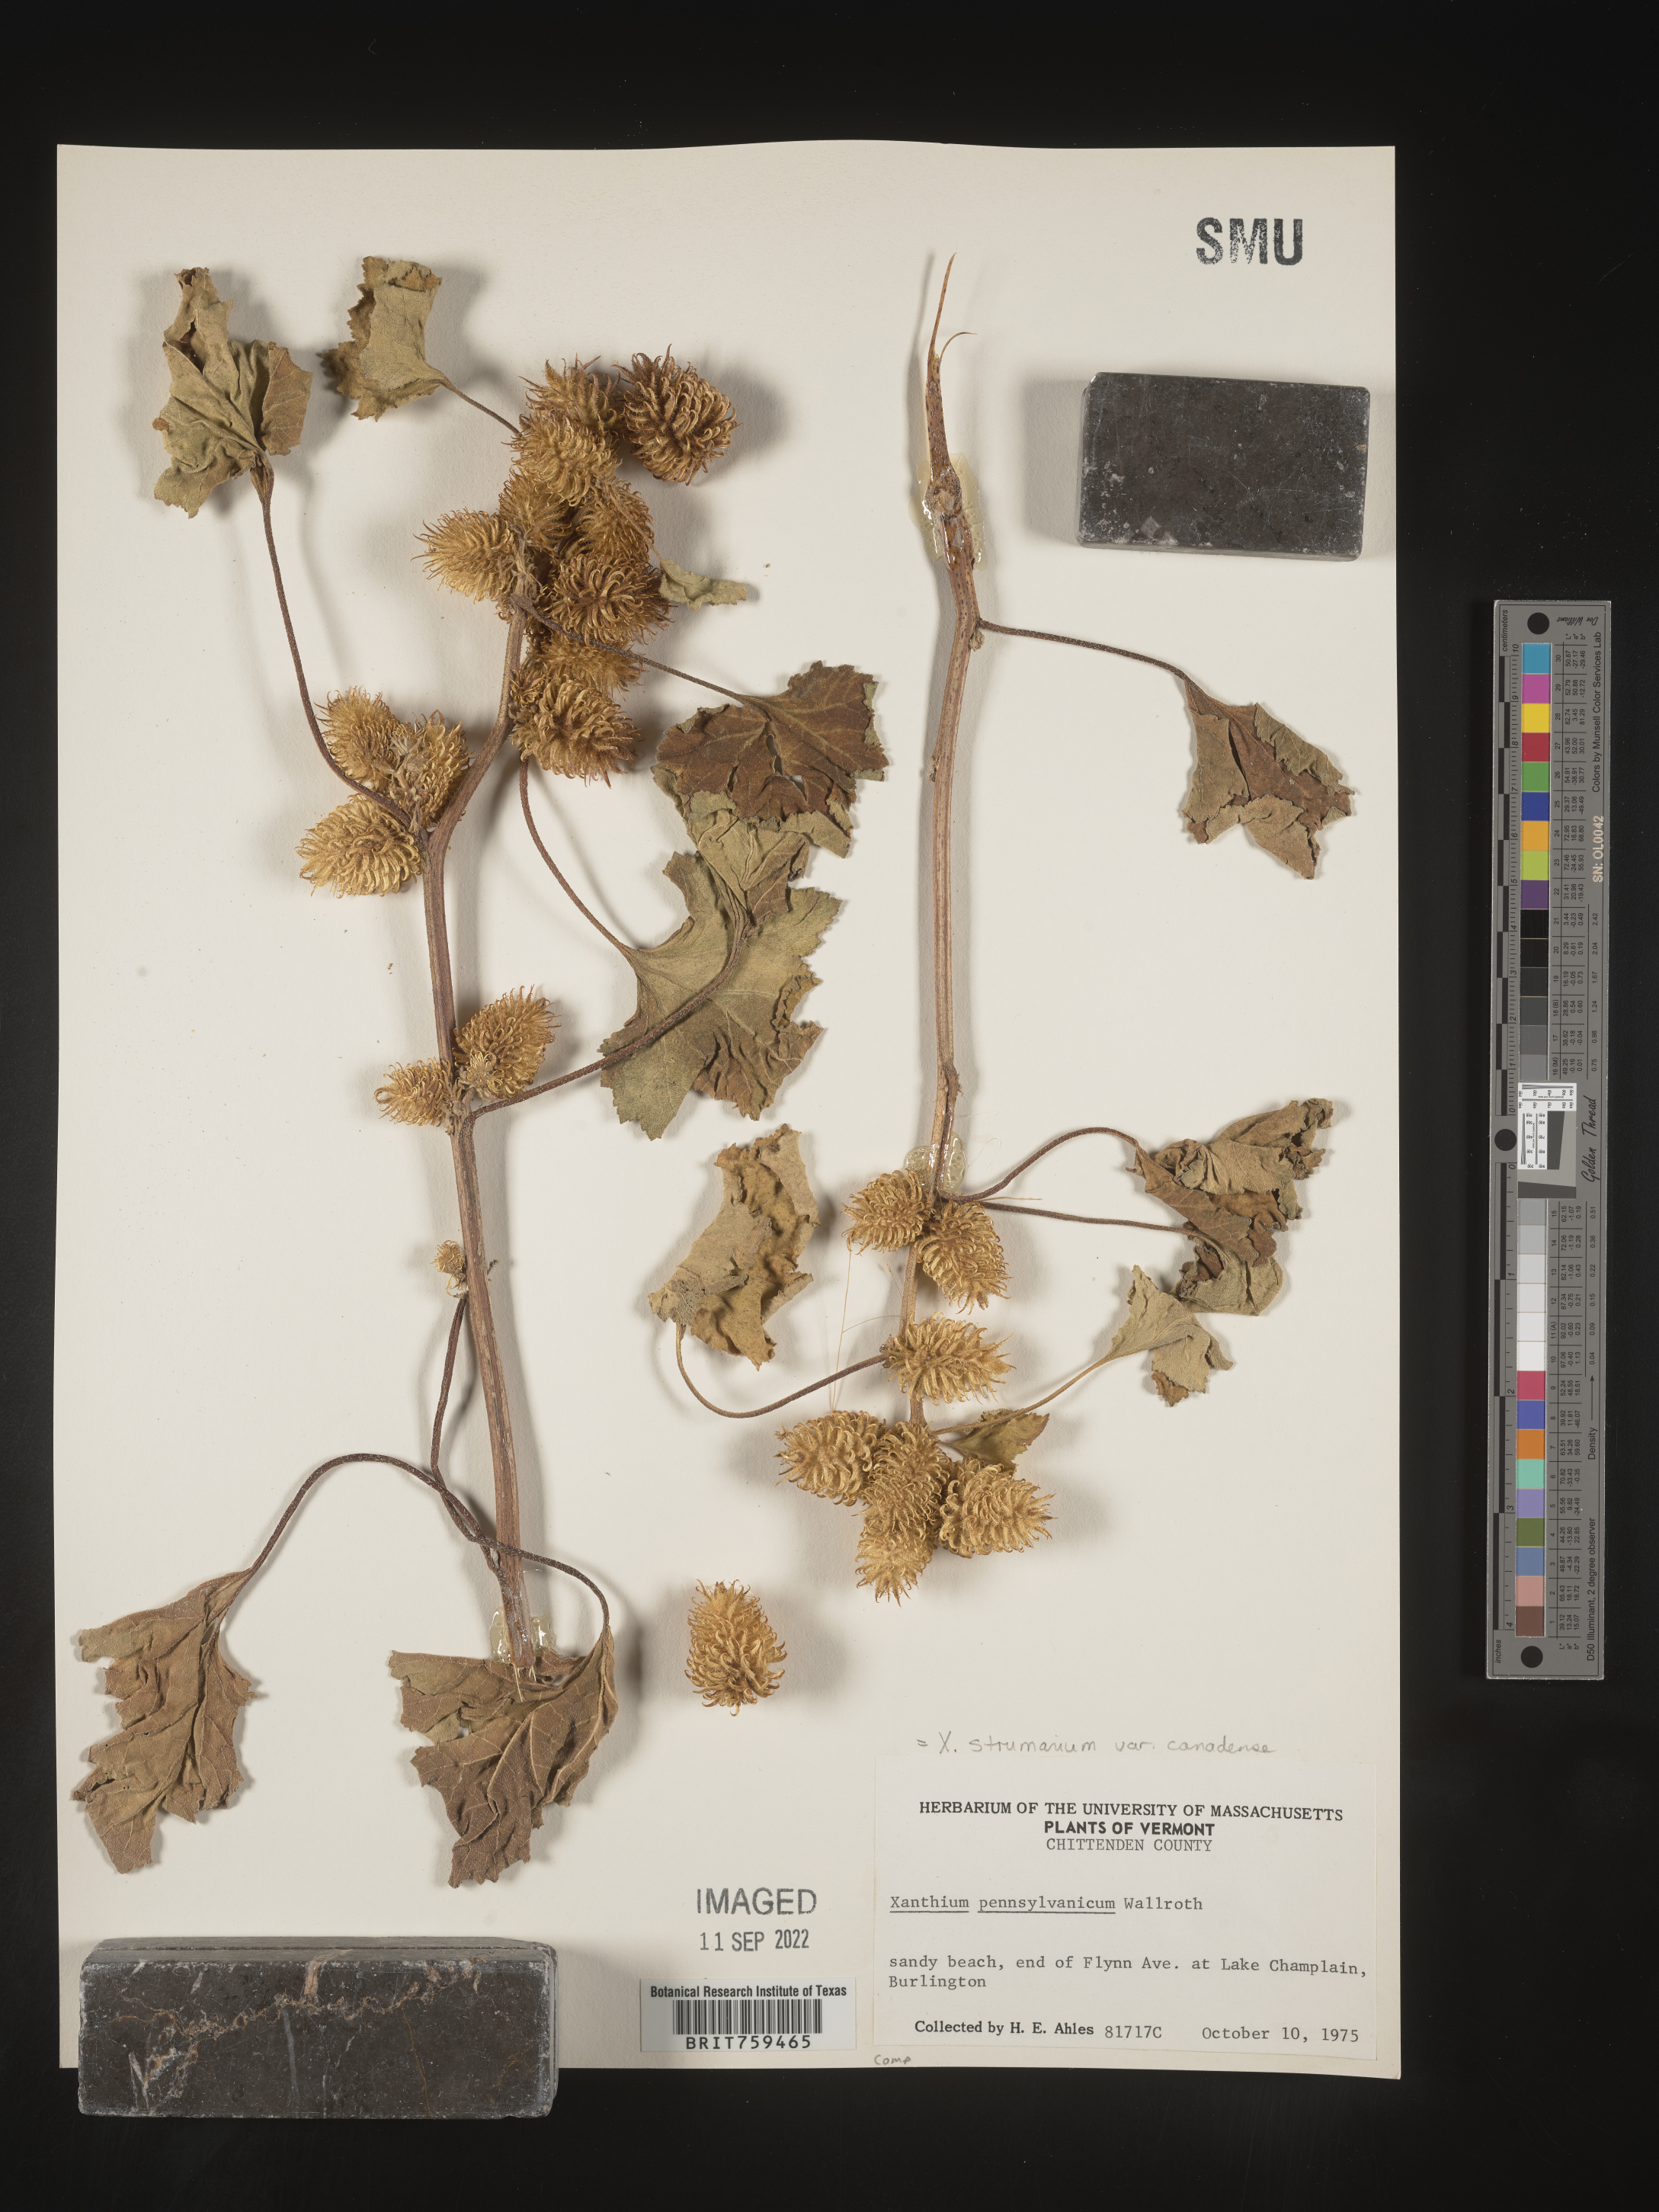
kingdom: Plantae
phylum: Tracheophyta
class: Magnoliopsida
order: Asterales
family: Asteraceae
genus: Xanthium
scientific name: Xanthium orientale
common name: Californian burr
